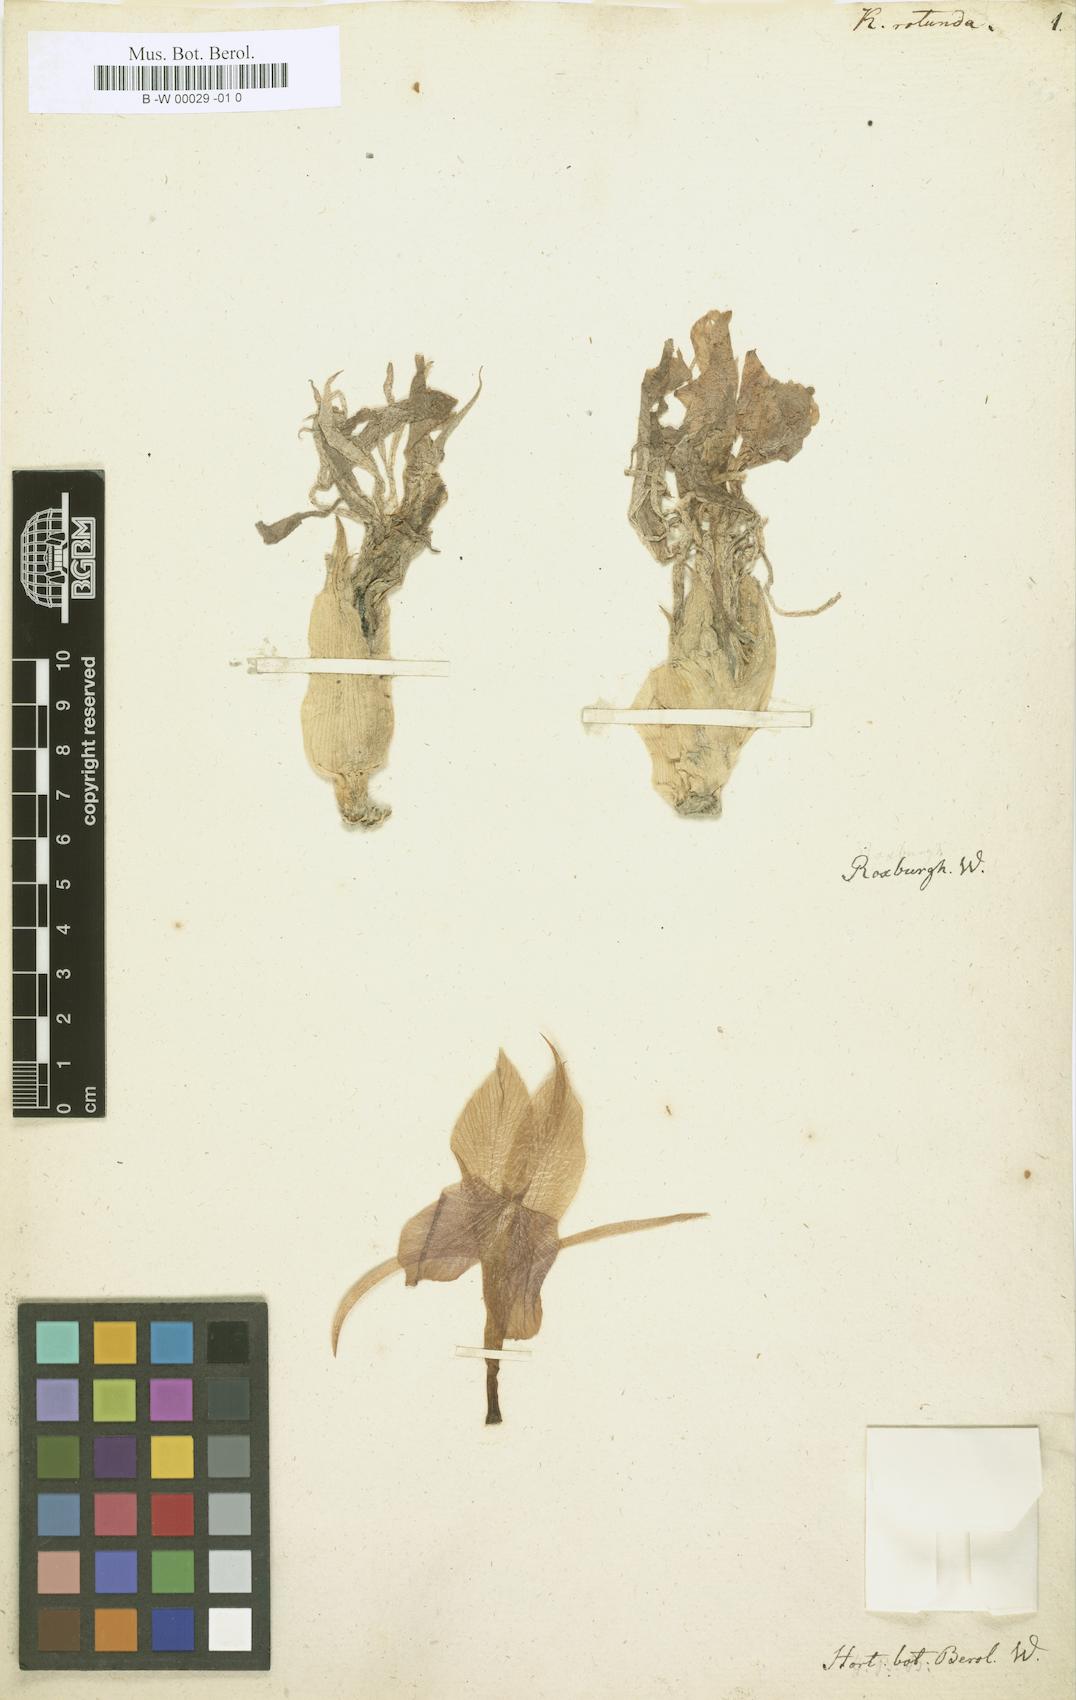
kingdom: Plantae
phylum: Tracheophyta
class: Liliopsida
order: Zingiberales
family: Zingiberaceae
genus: Kaempferia
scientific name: Kaempferia rotunda
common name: Tropical-crocus
